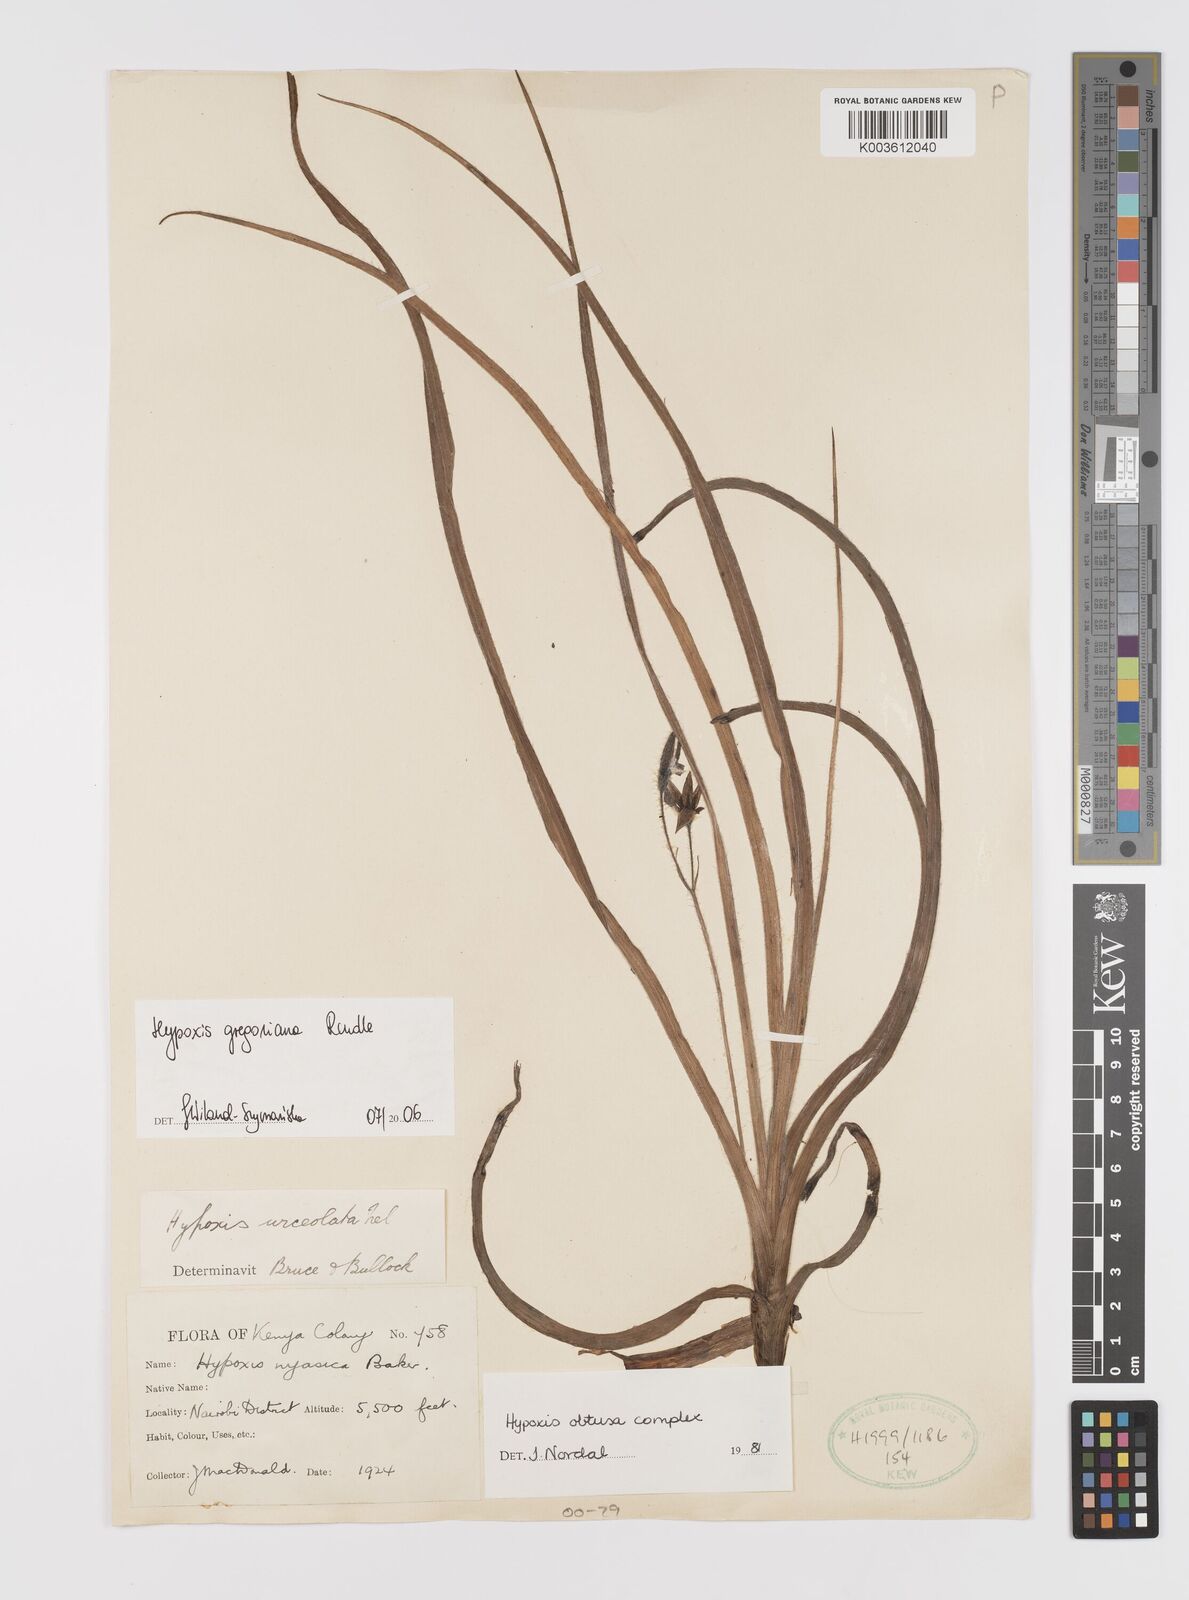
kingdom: Plantae
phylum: Tracheophyta
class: Liliopsida
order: Asparagales
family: Hypoxidaceae
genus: Hypoxis
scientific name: Hypoxis gregoriana
